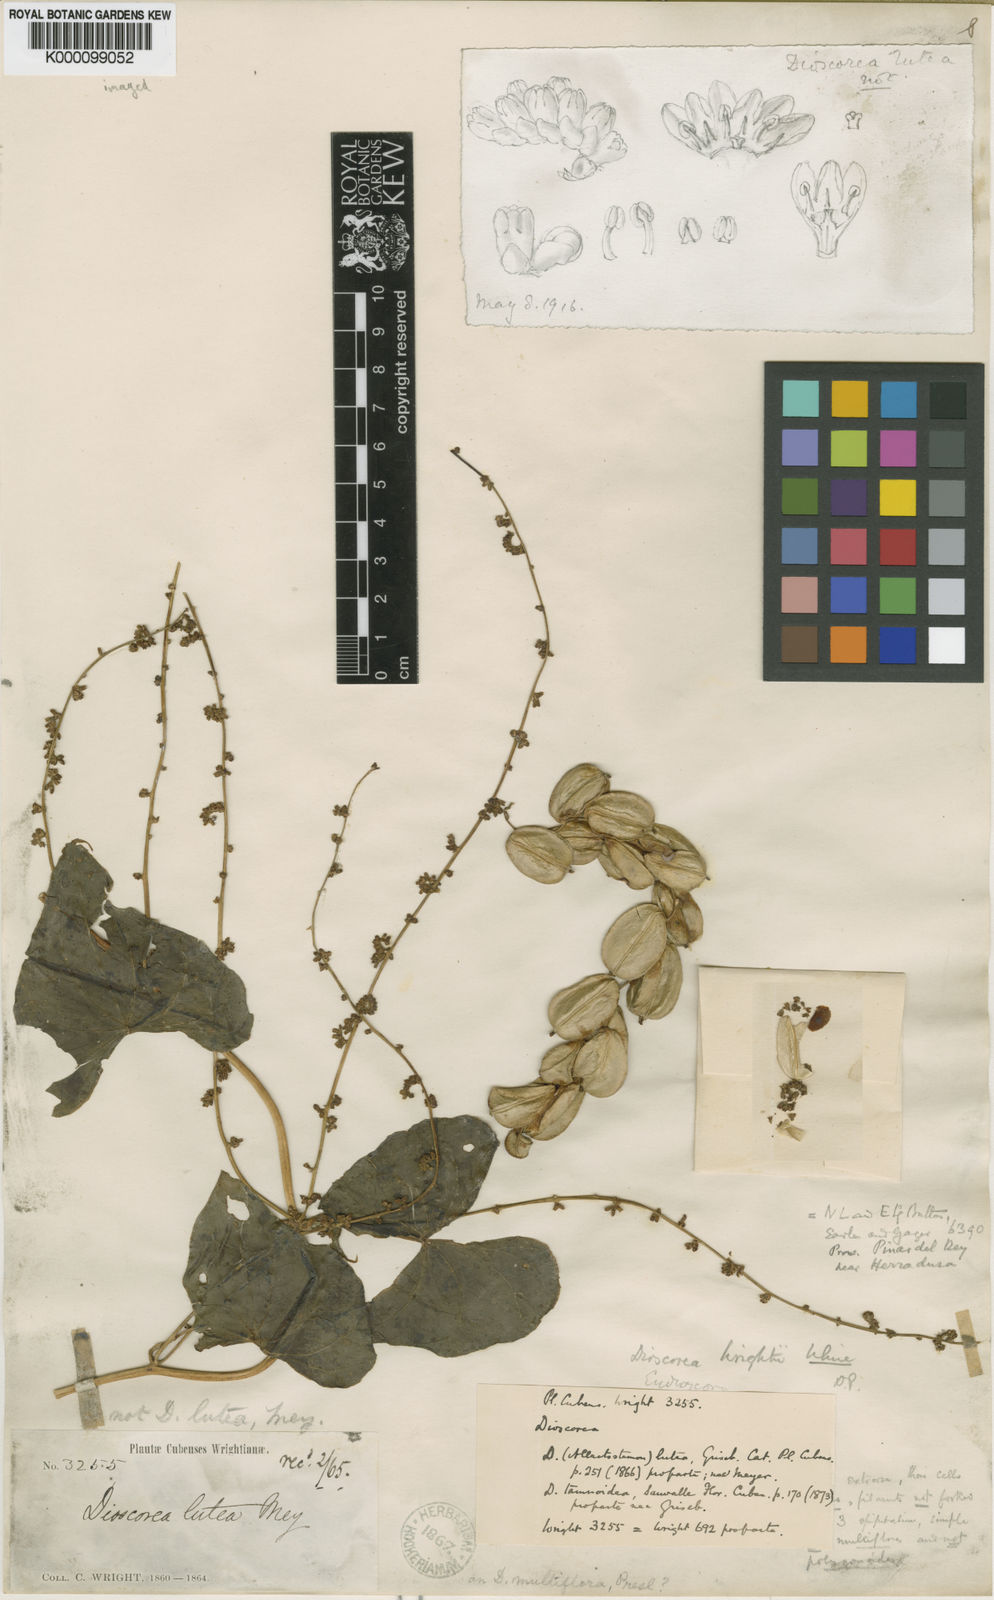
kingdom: Plantae
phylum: Tracheophyta
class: Liliopsida
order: Dioscoreales
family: Dioscoreaceae
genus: Dioscorea
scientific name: Dioscorea wrightii
